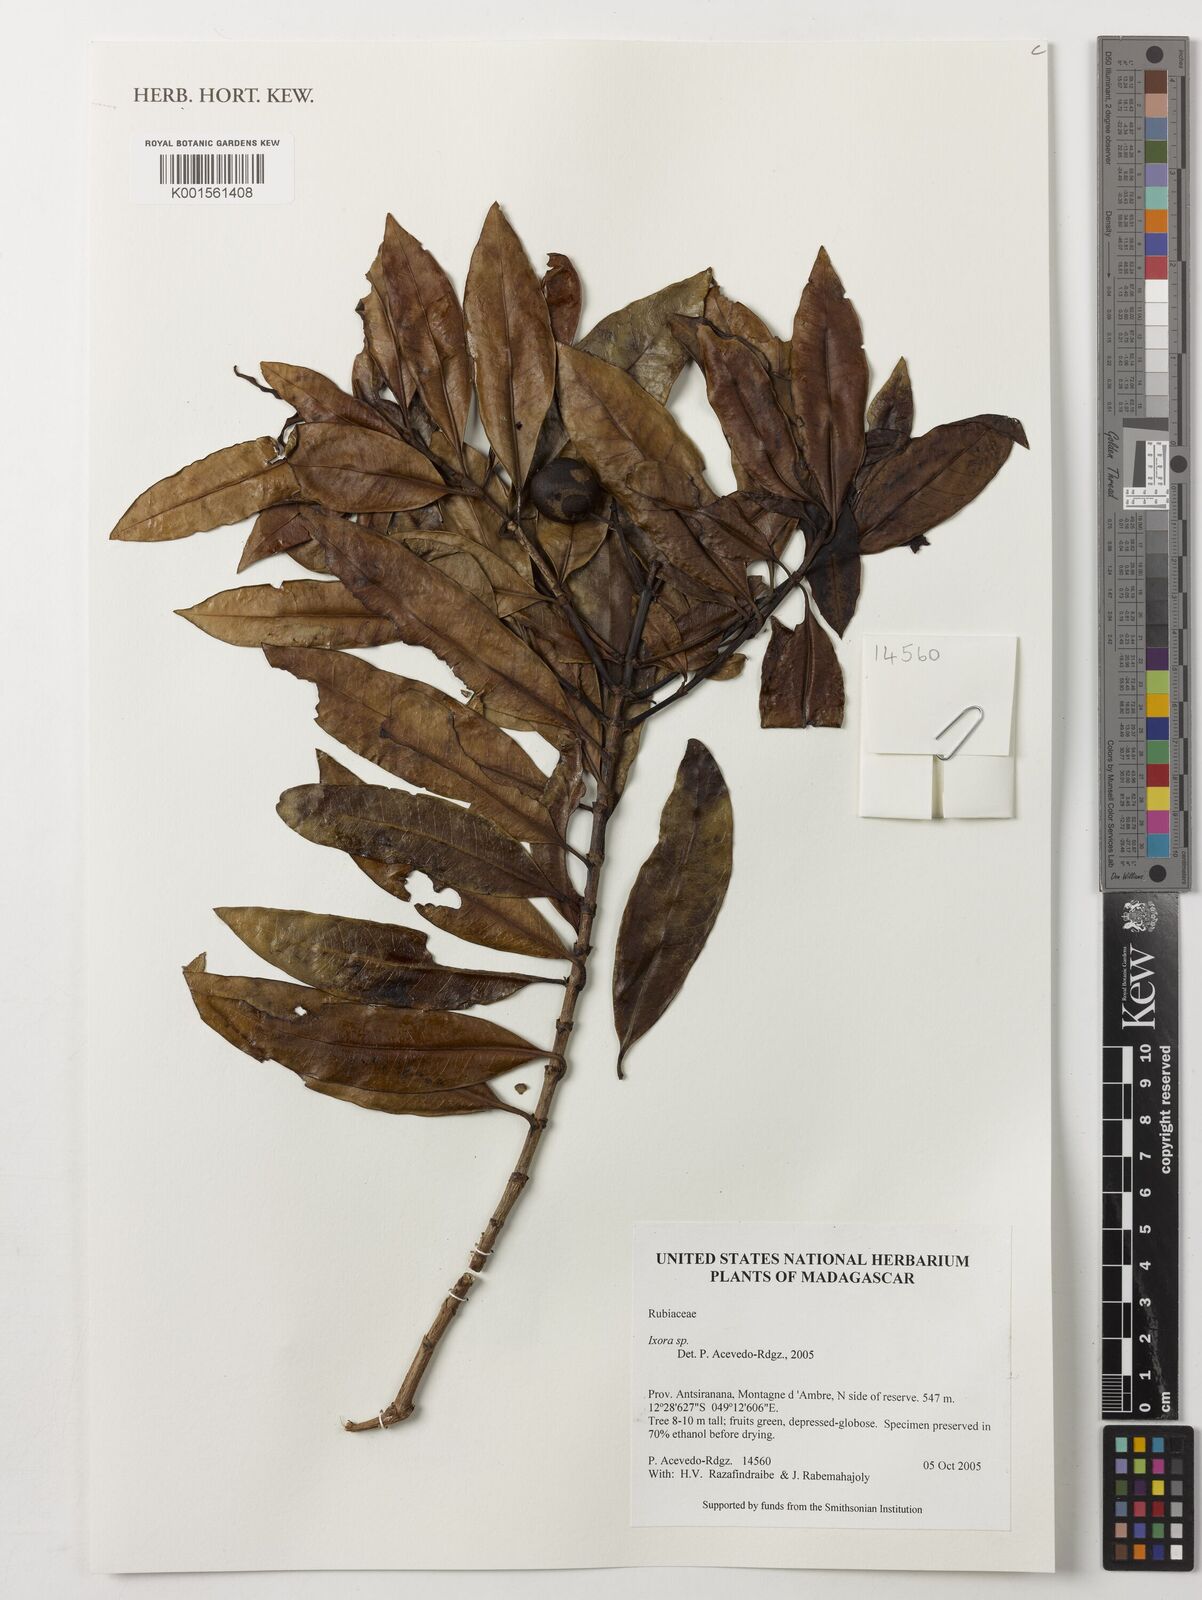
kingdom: Plantae
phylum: Tracheophyta
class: Magnoliopsida
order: Gentianales
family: Rubiaceae
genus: Ixora
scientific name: Ixora
